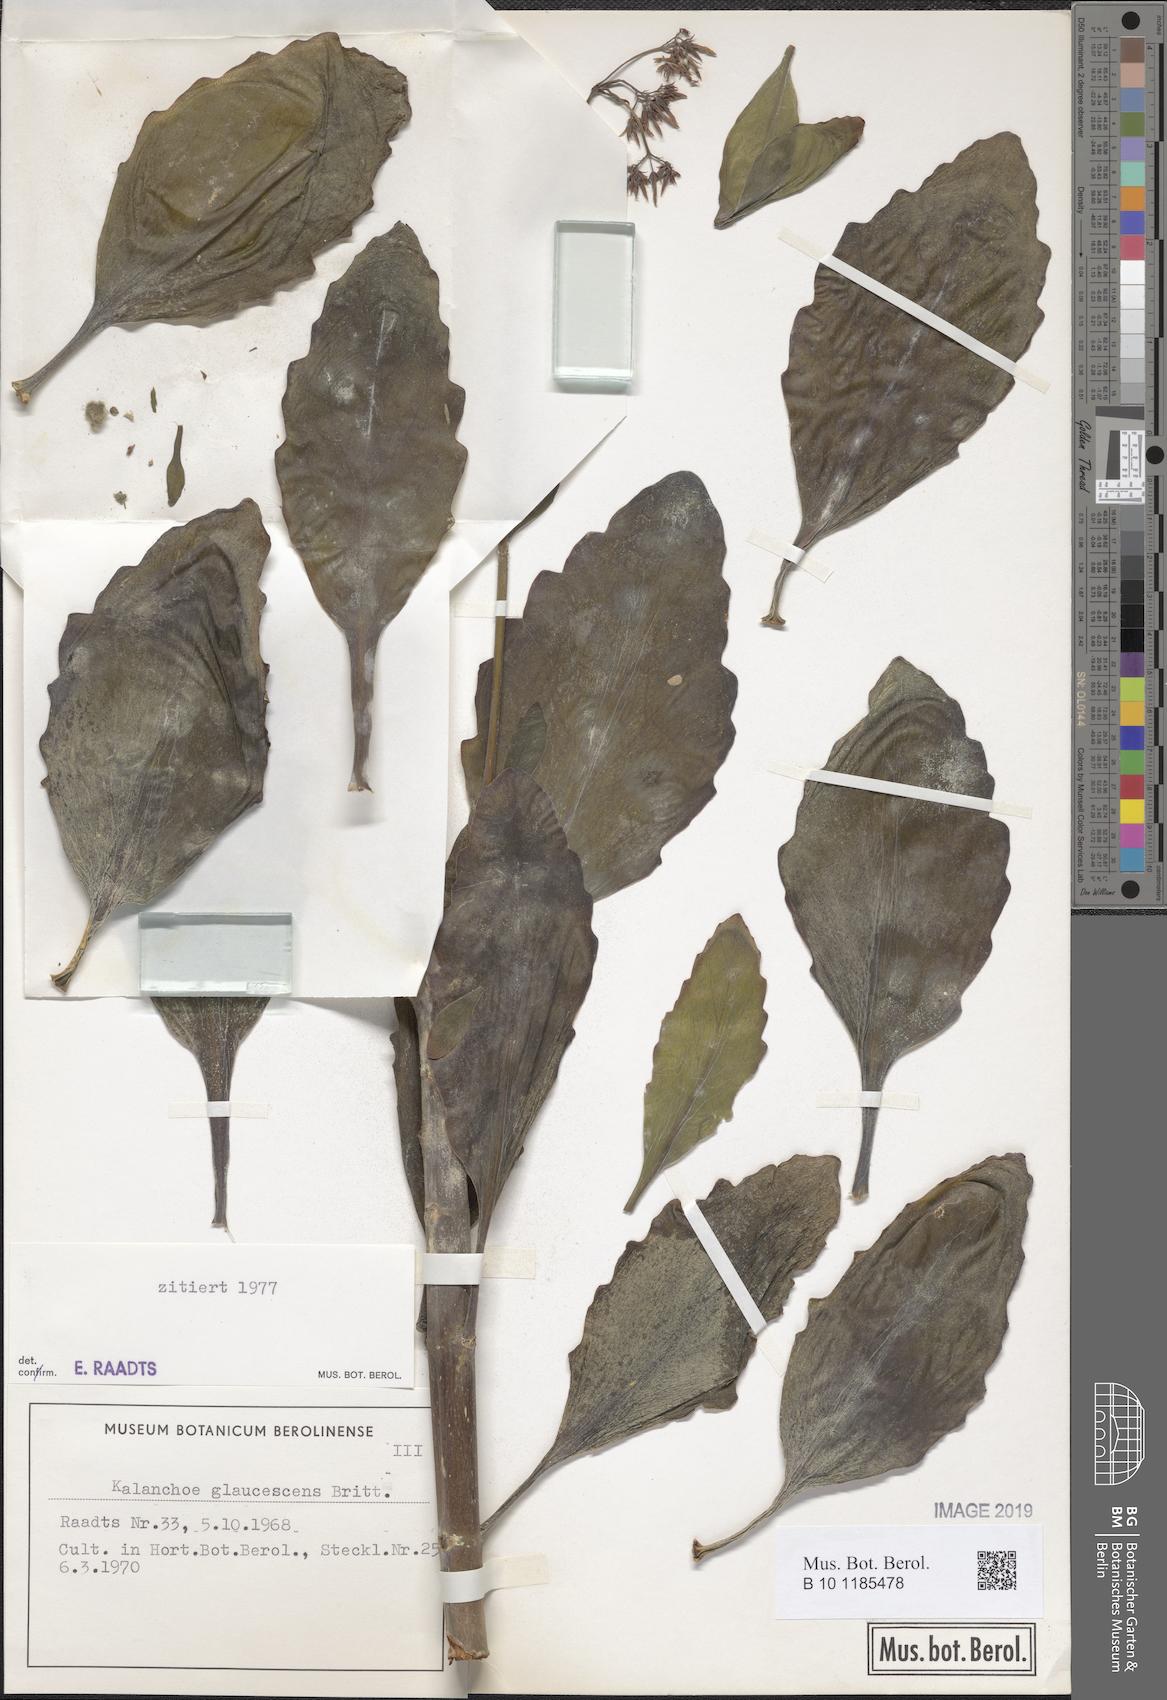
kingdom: Plantae
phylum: Tracheophyta
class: Magnoliopsida
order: Saxifragales
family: Crassulaceae
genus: Kalanchoe
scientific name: Kalanchoe glaucescens
